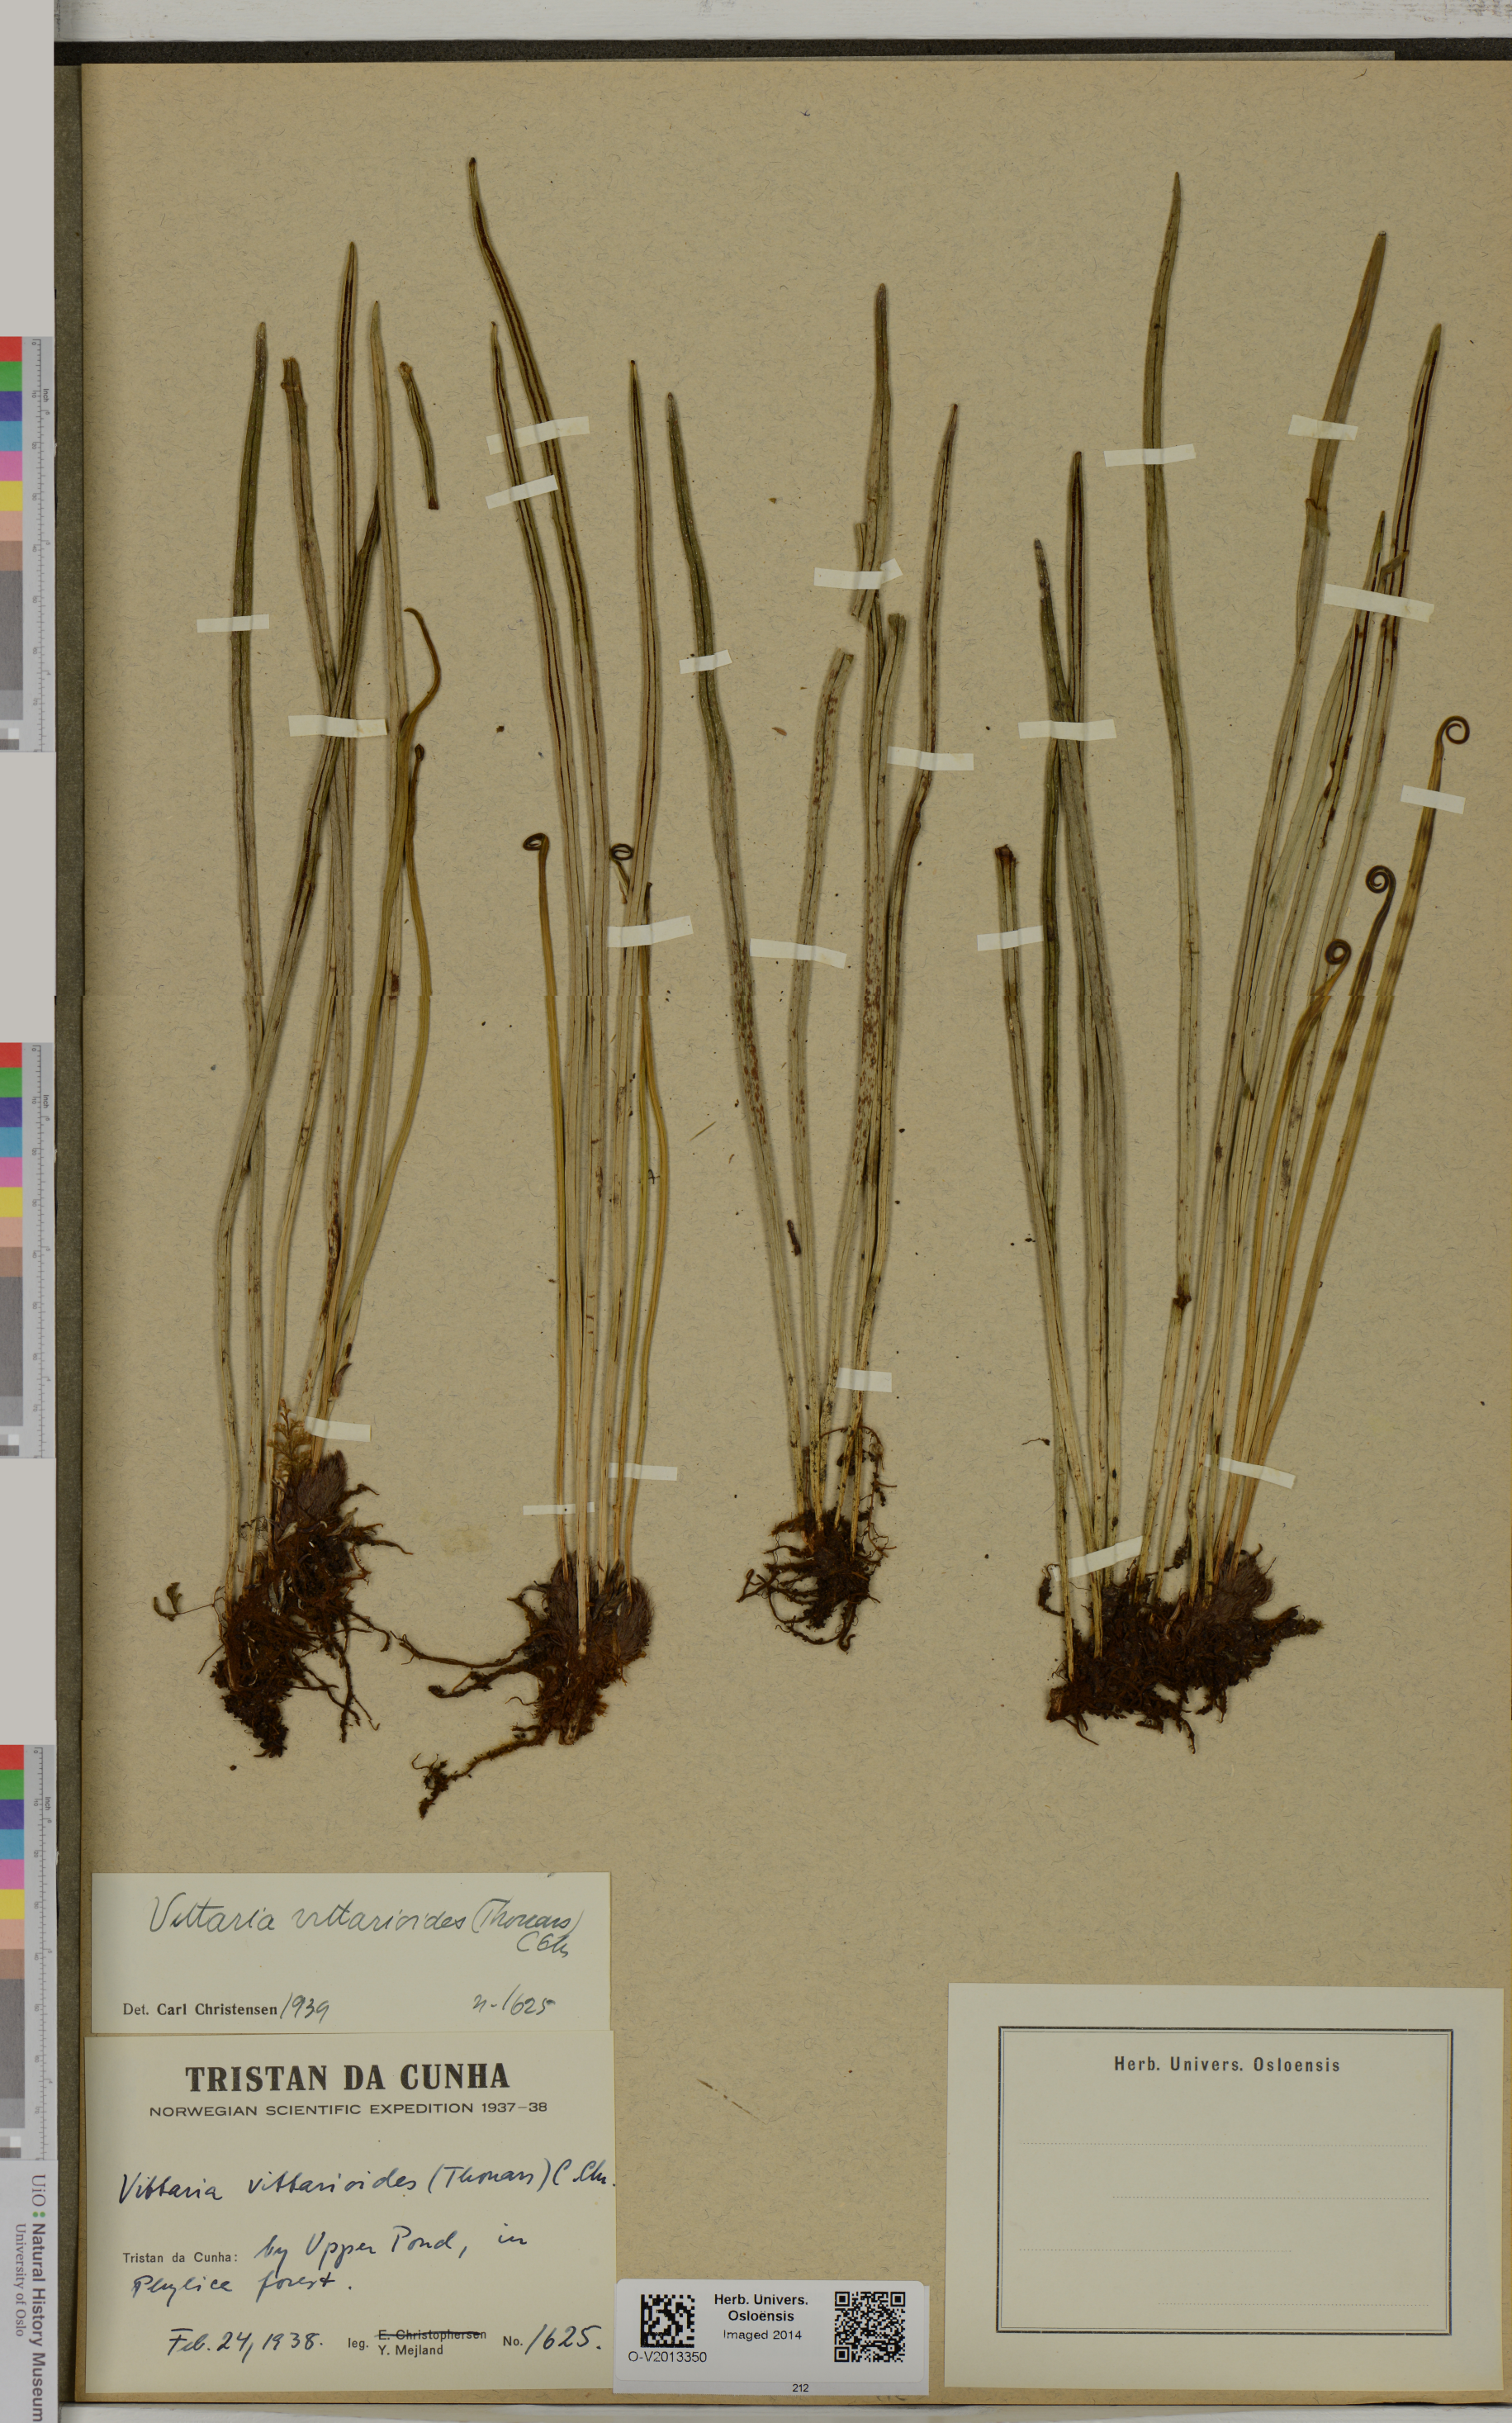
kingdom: Plantae
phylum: Tracheophyta
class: Polypodiopsida
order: Polypodiales
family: Pteridaceae
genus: Haplopteris
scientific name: Haplopteris vittarioides
